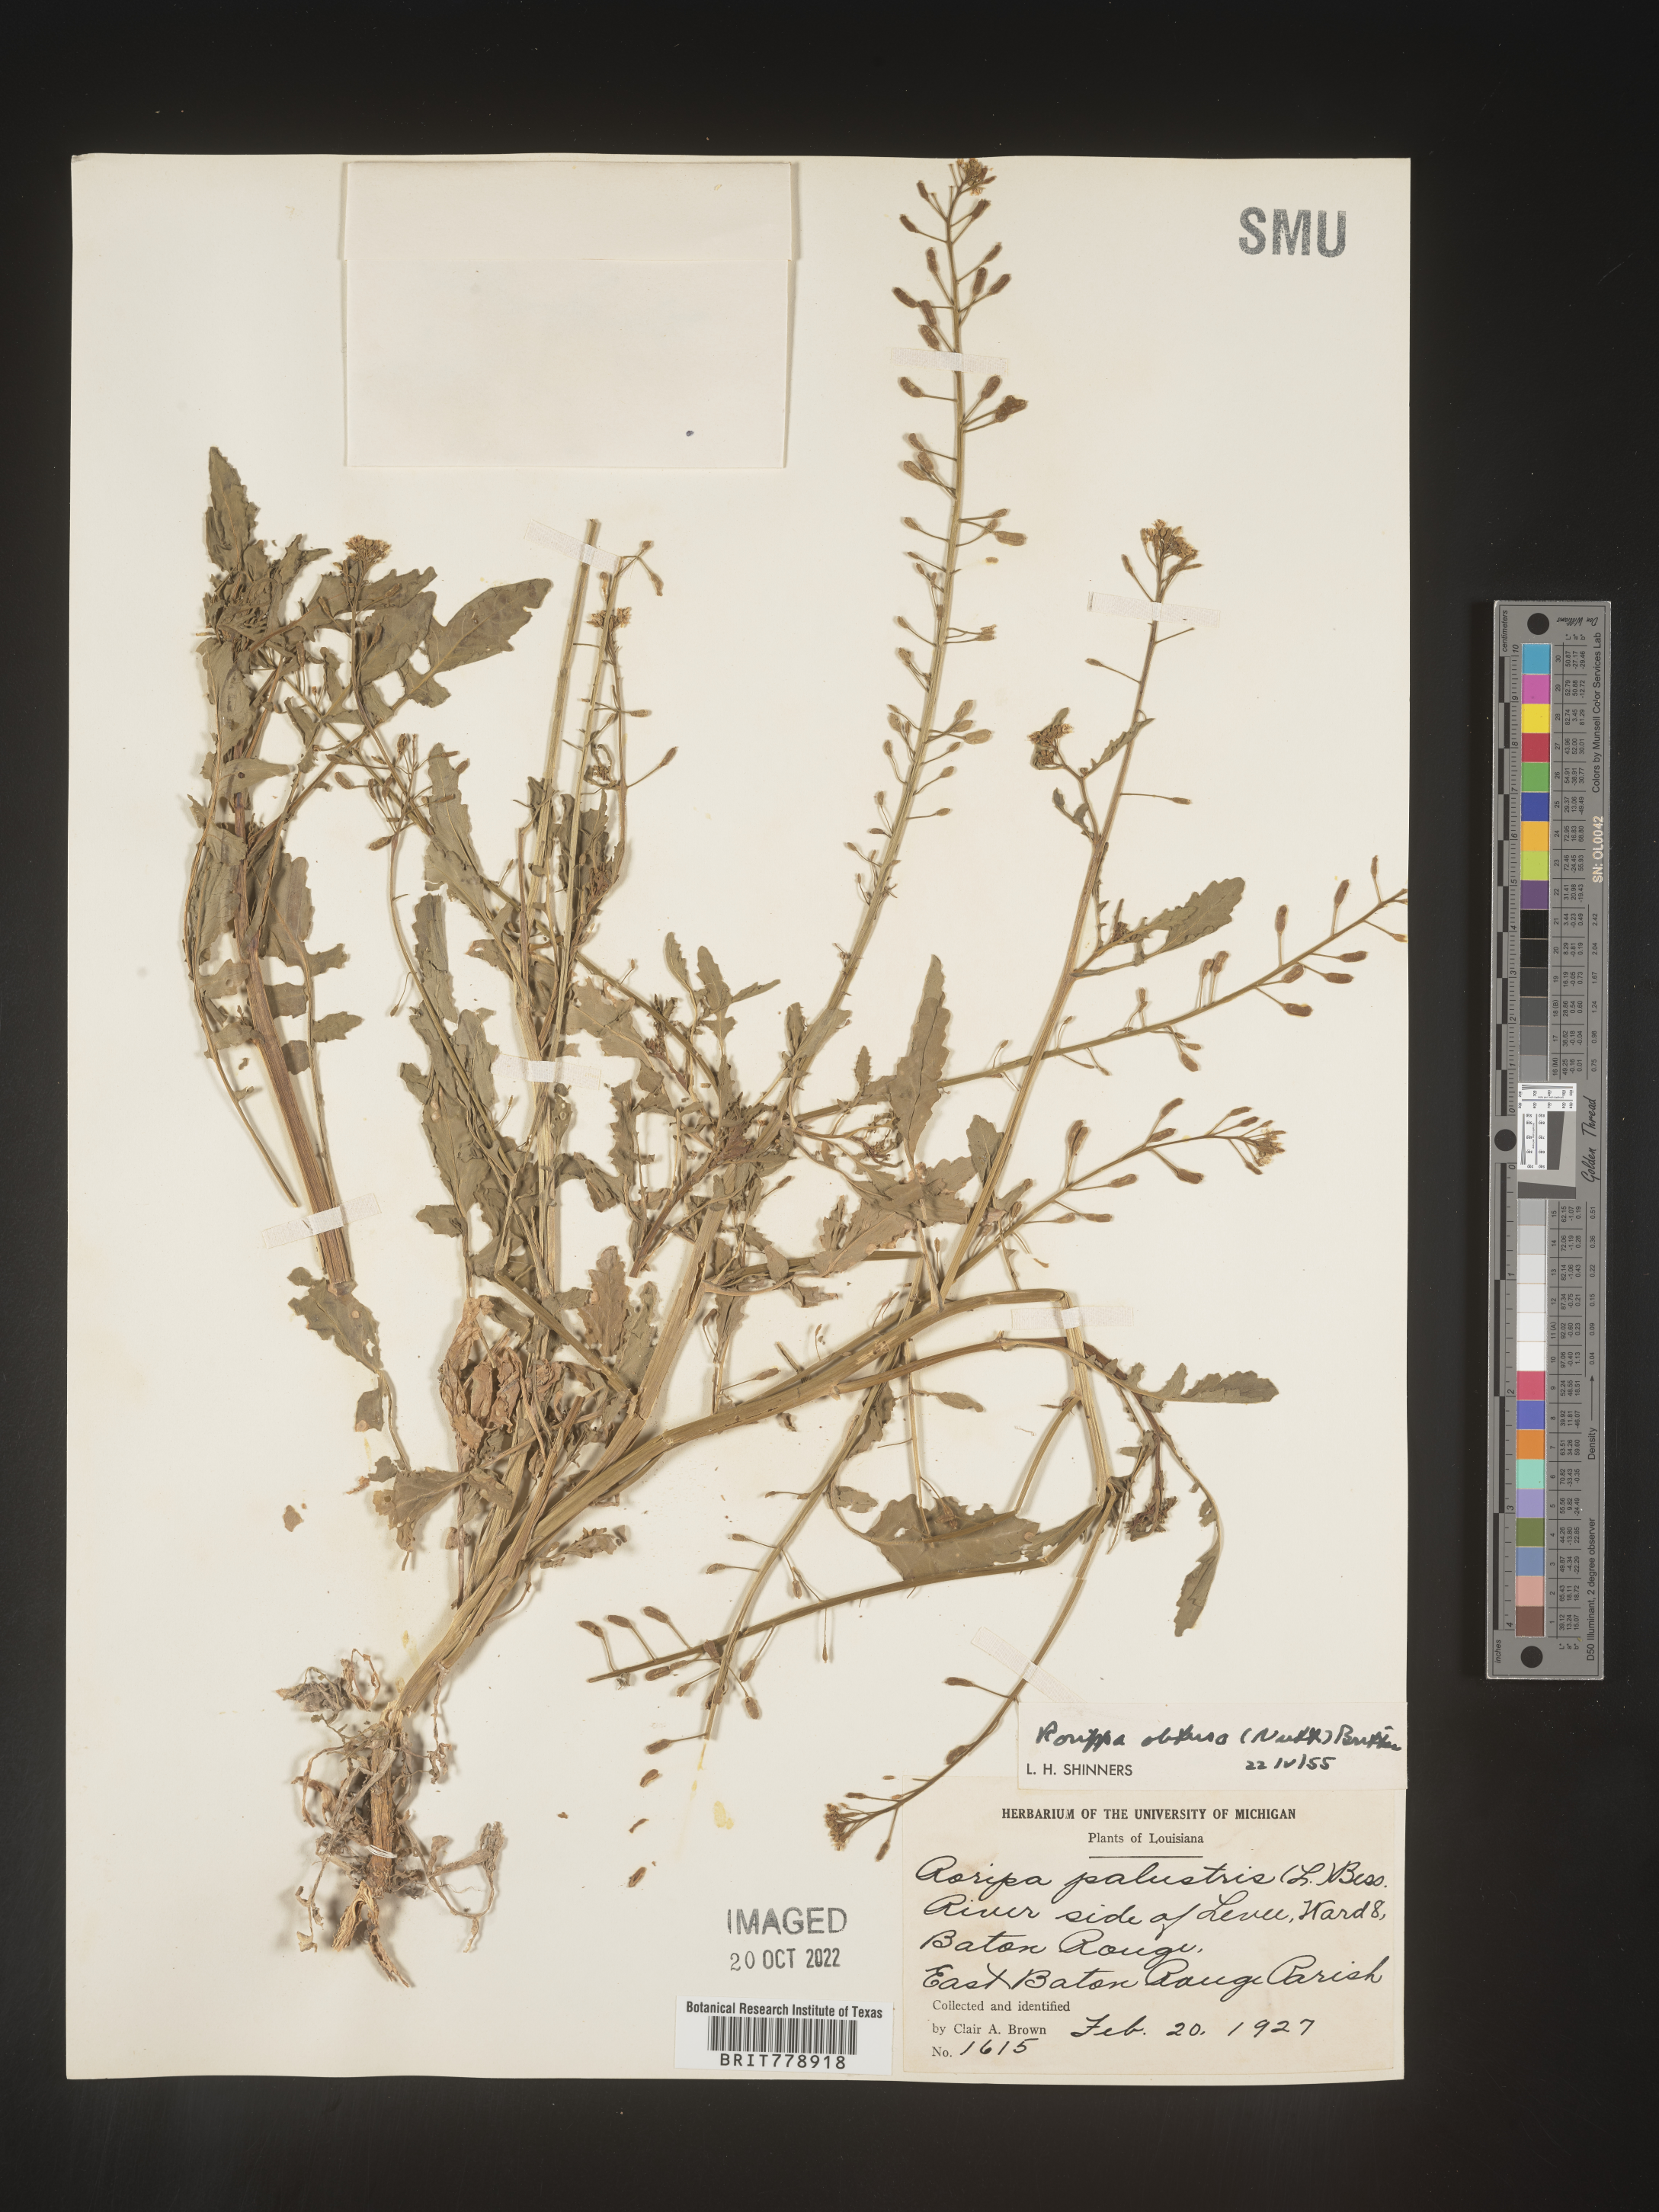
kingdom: Plantae
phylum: Tracheophyta
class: Magnoliopsida
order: Brassicales
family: Brassicaceae
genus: Rorippa
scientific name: Rorippa teres
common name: Southern marsh yellowcress
